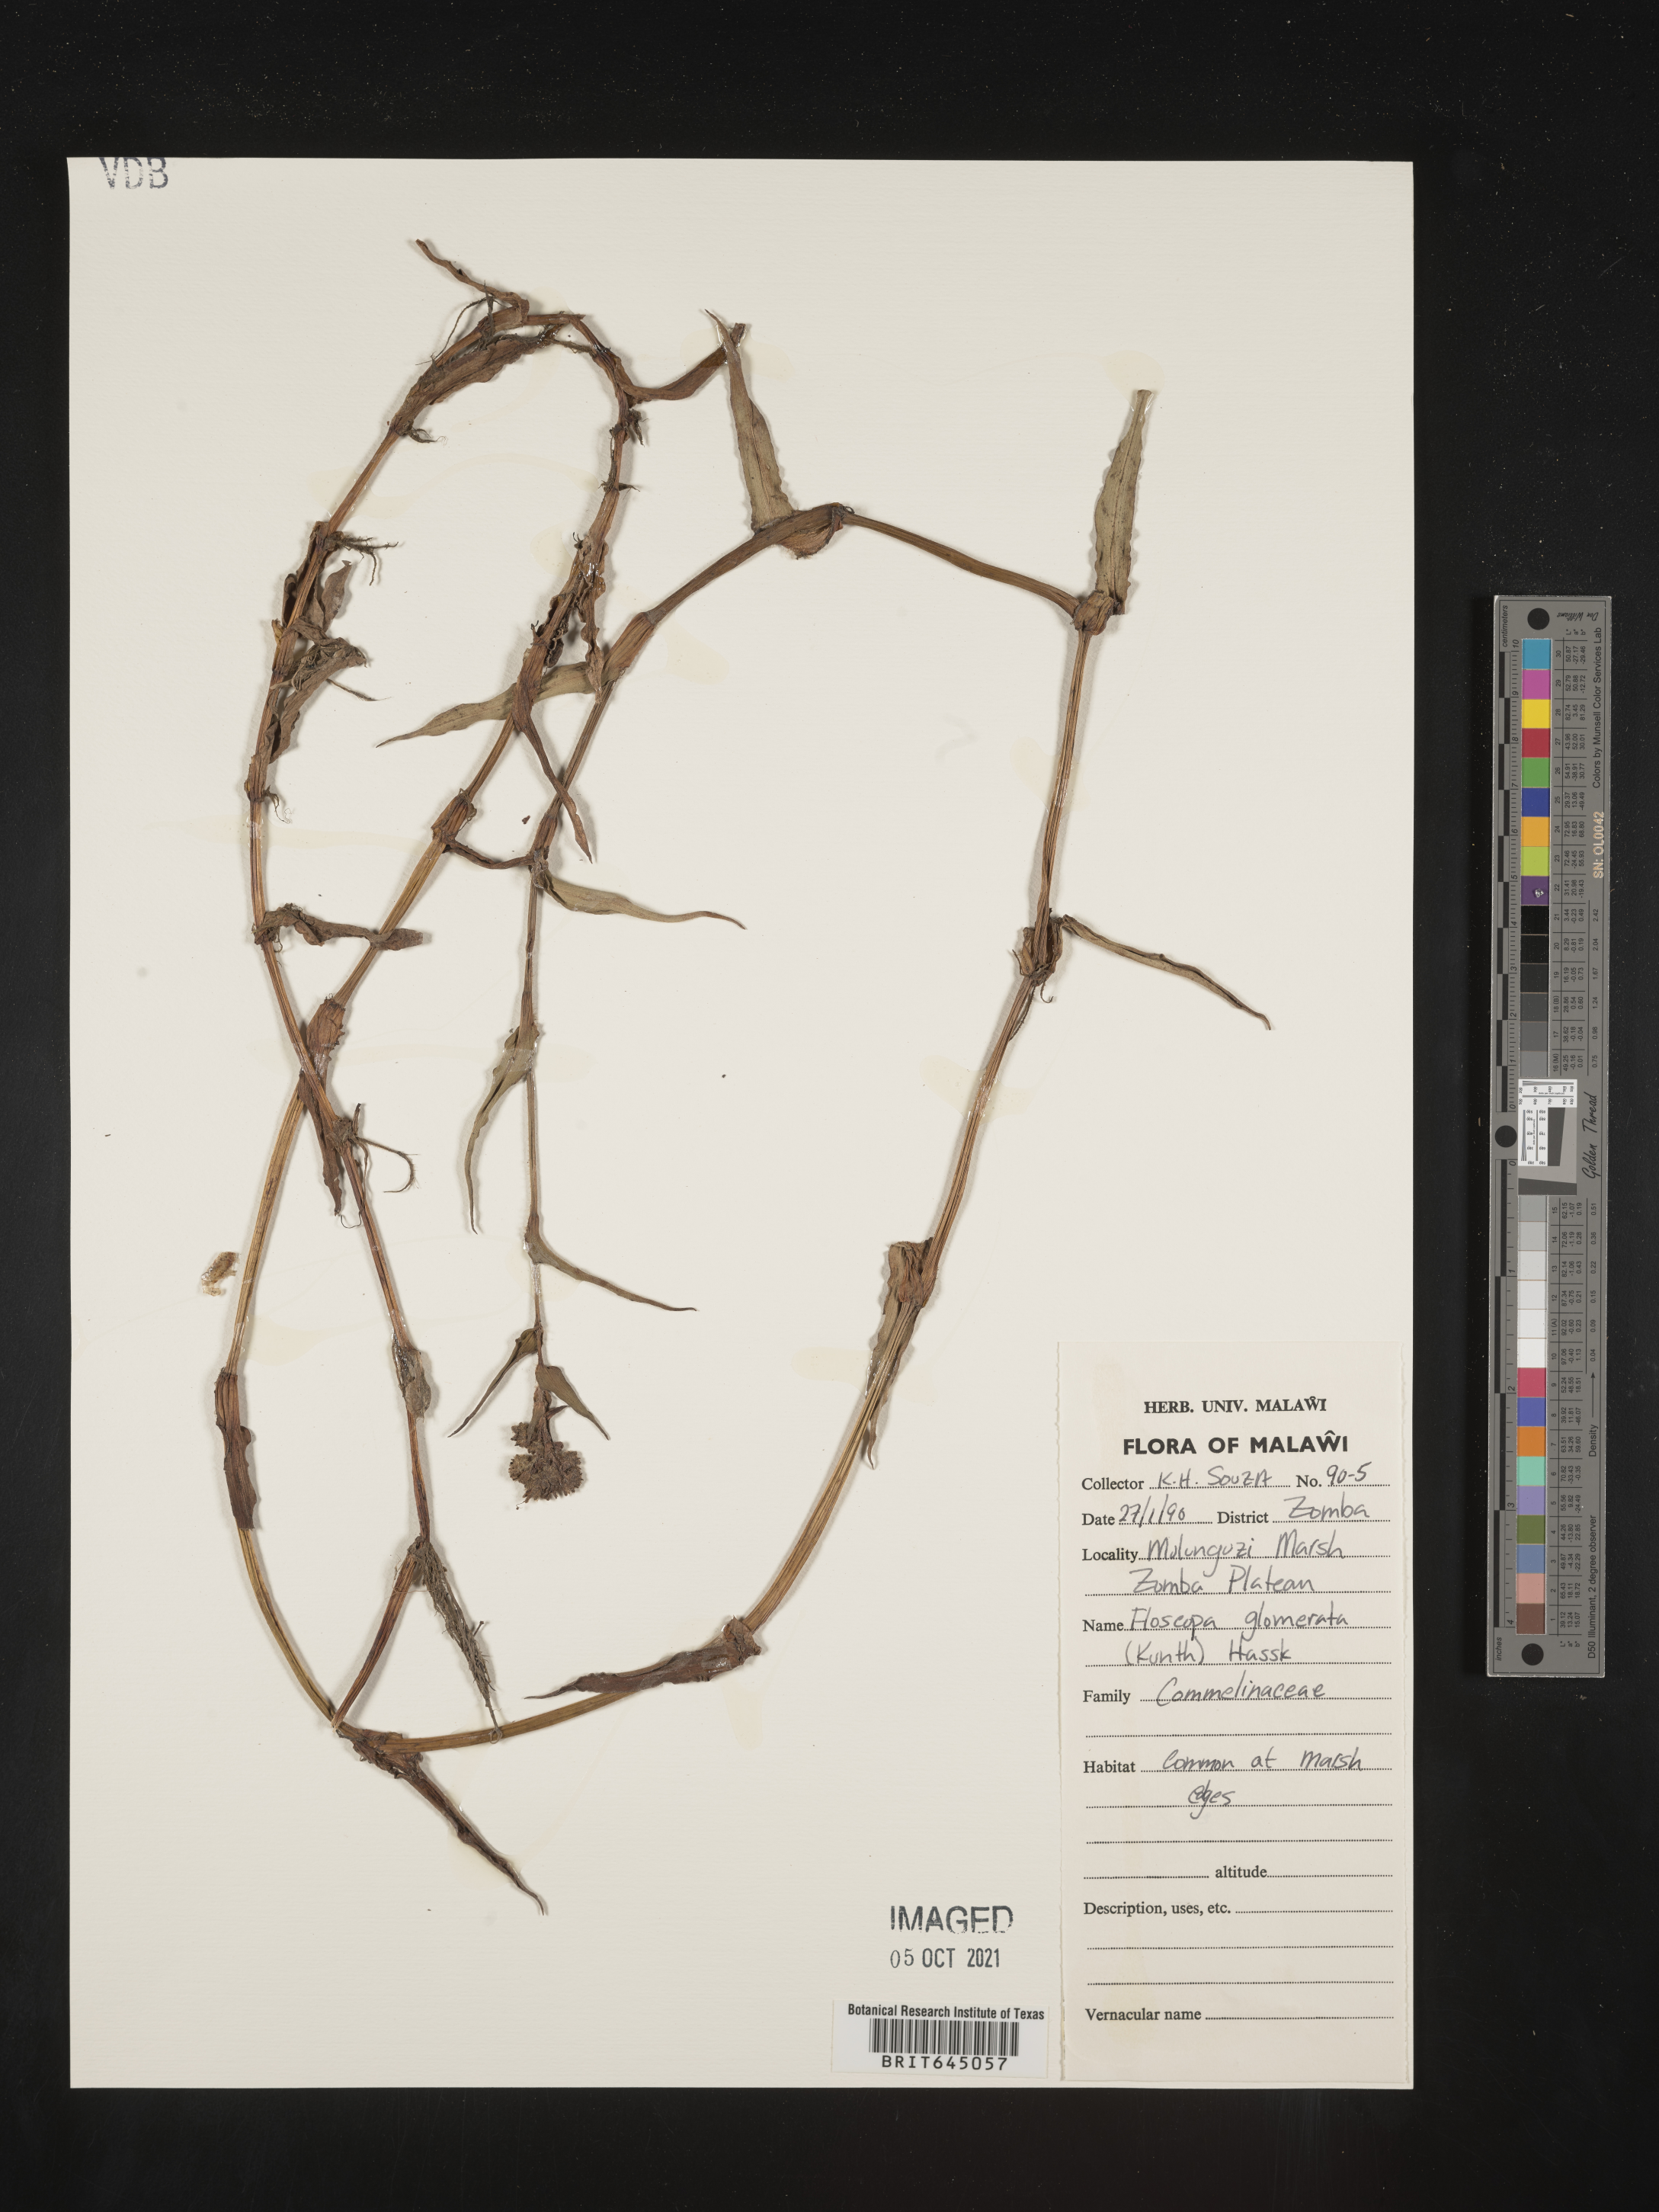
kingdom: Plantae
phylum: Tracheophyta
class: Liliopsida
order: Commelinales
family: Commelinaceae
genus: Floscopa
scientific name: Floscopa glomerata
